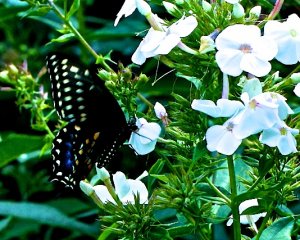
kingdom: Animalia
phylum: Arthropoda
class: Insecta
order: Lepidoptera
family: Papilionidae
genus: Papilio
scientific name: Papilio polyxenes
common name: Black Swallowtail
